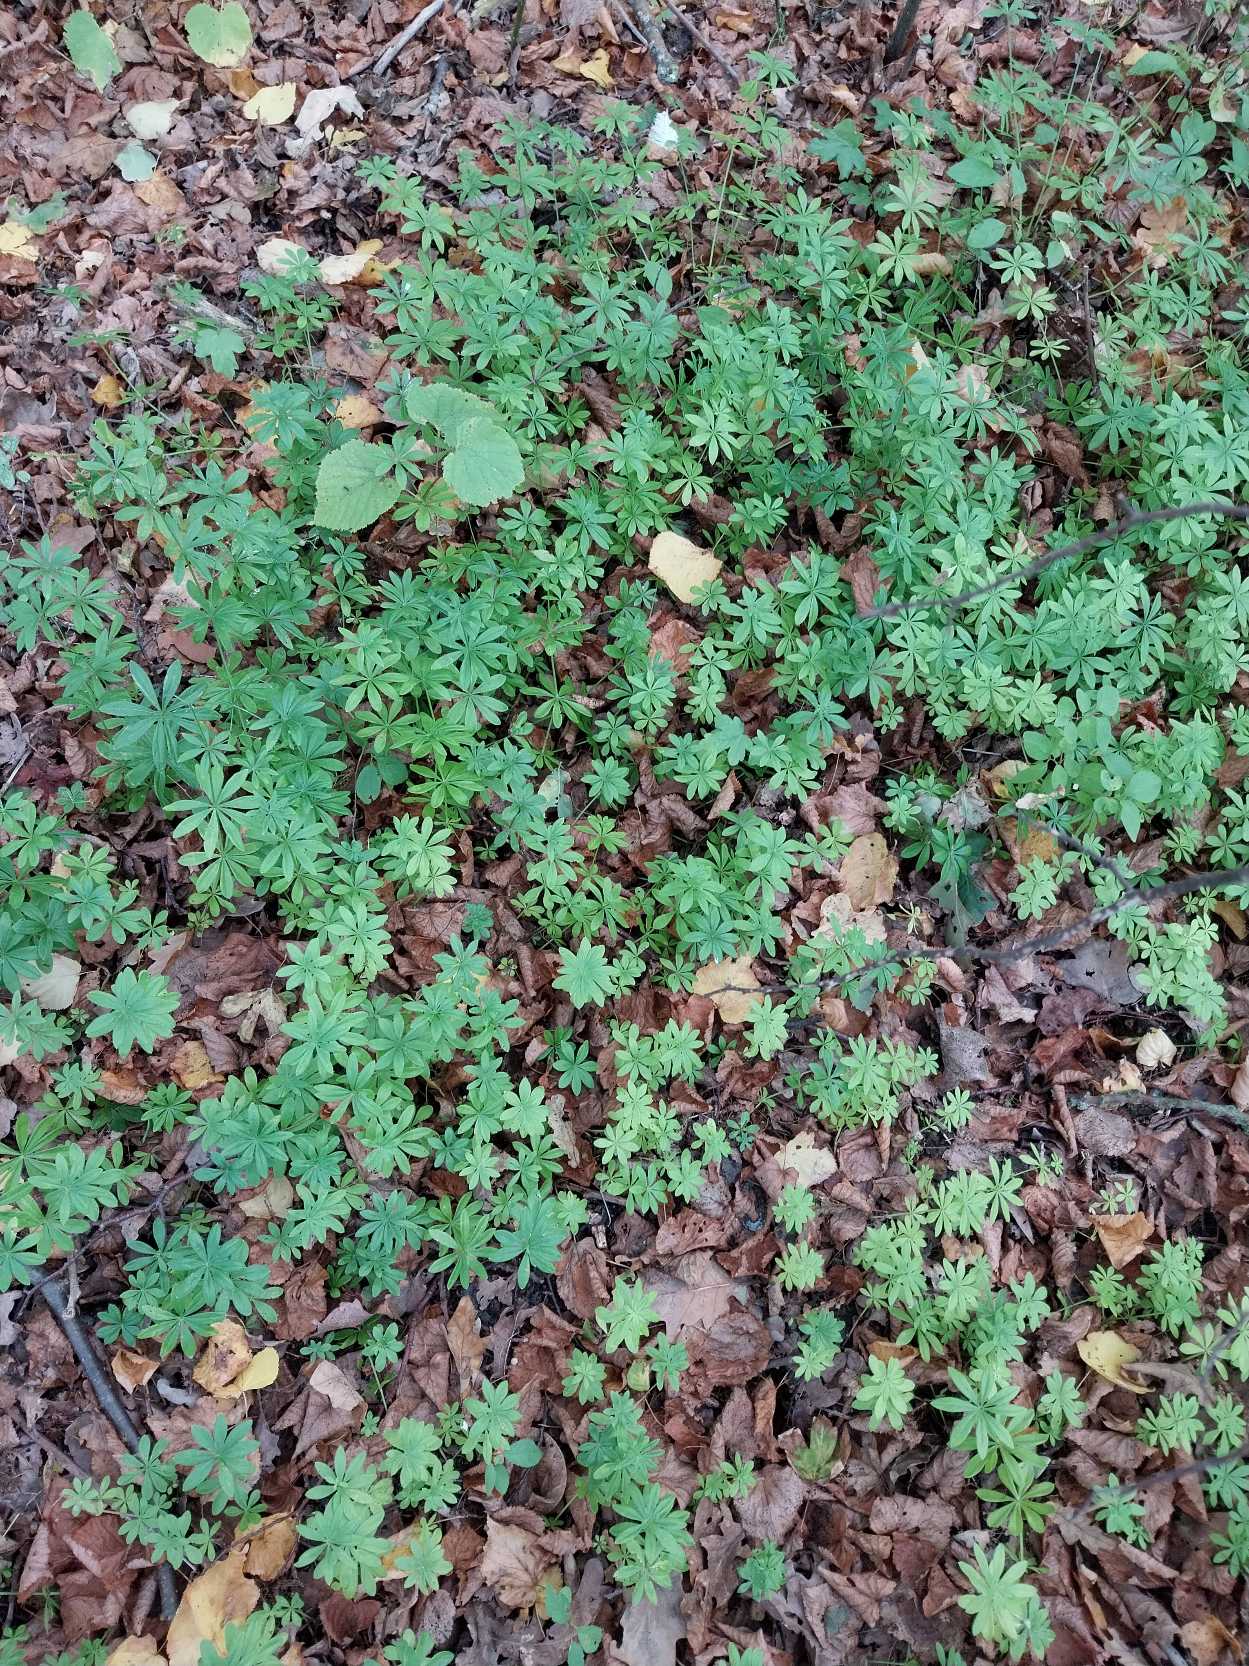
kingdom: Plantae
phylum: Tracheophyta
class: Magnoliopsida
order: Gentianales
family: Rubiaceae
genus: Galium
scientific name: Galium odoratum
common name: Skovmærke
